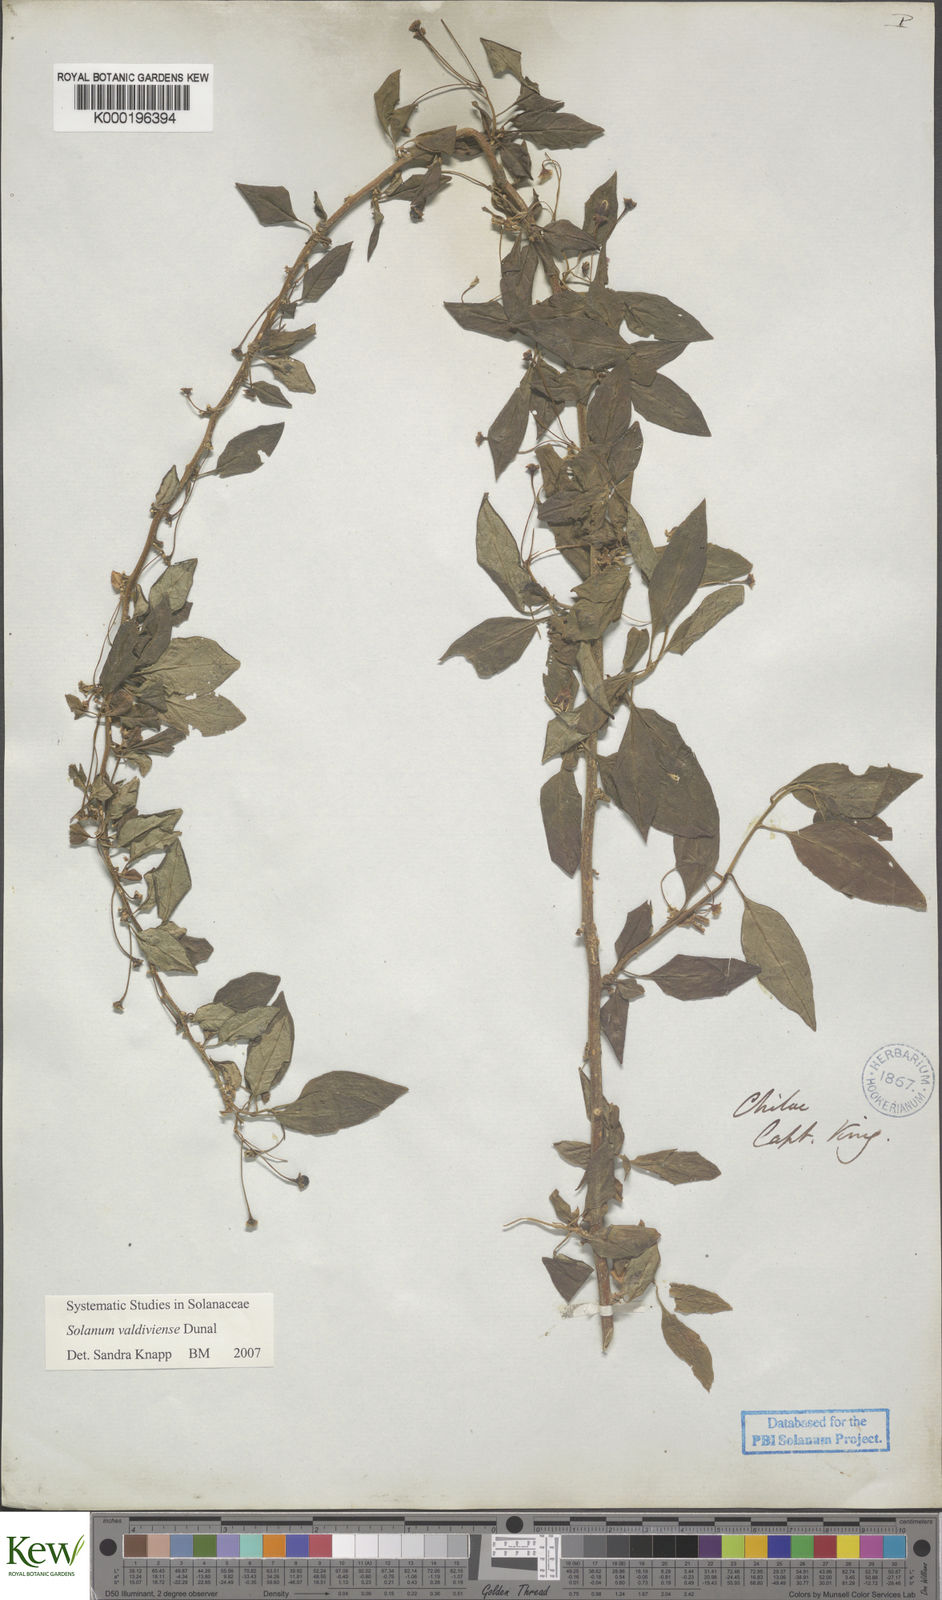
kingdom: Plantae
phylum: Tracheophyta
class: Magnoliopsida
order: Solanales
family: Solanaceae
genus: Solanum
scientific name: Solanum valdiviense
